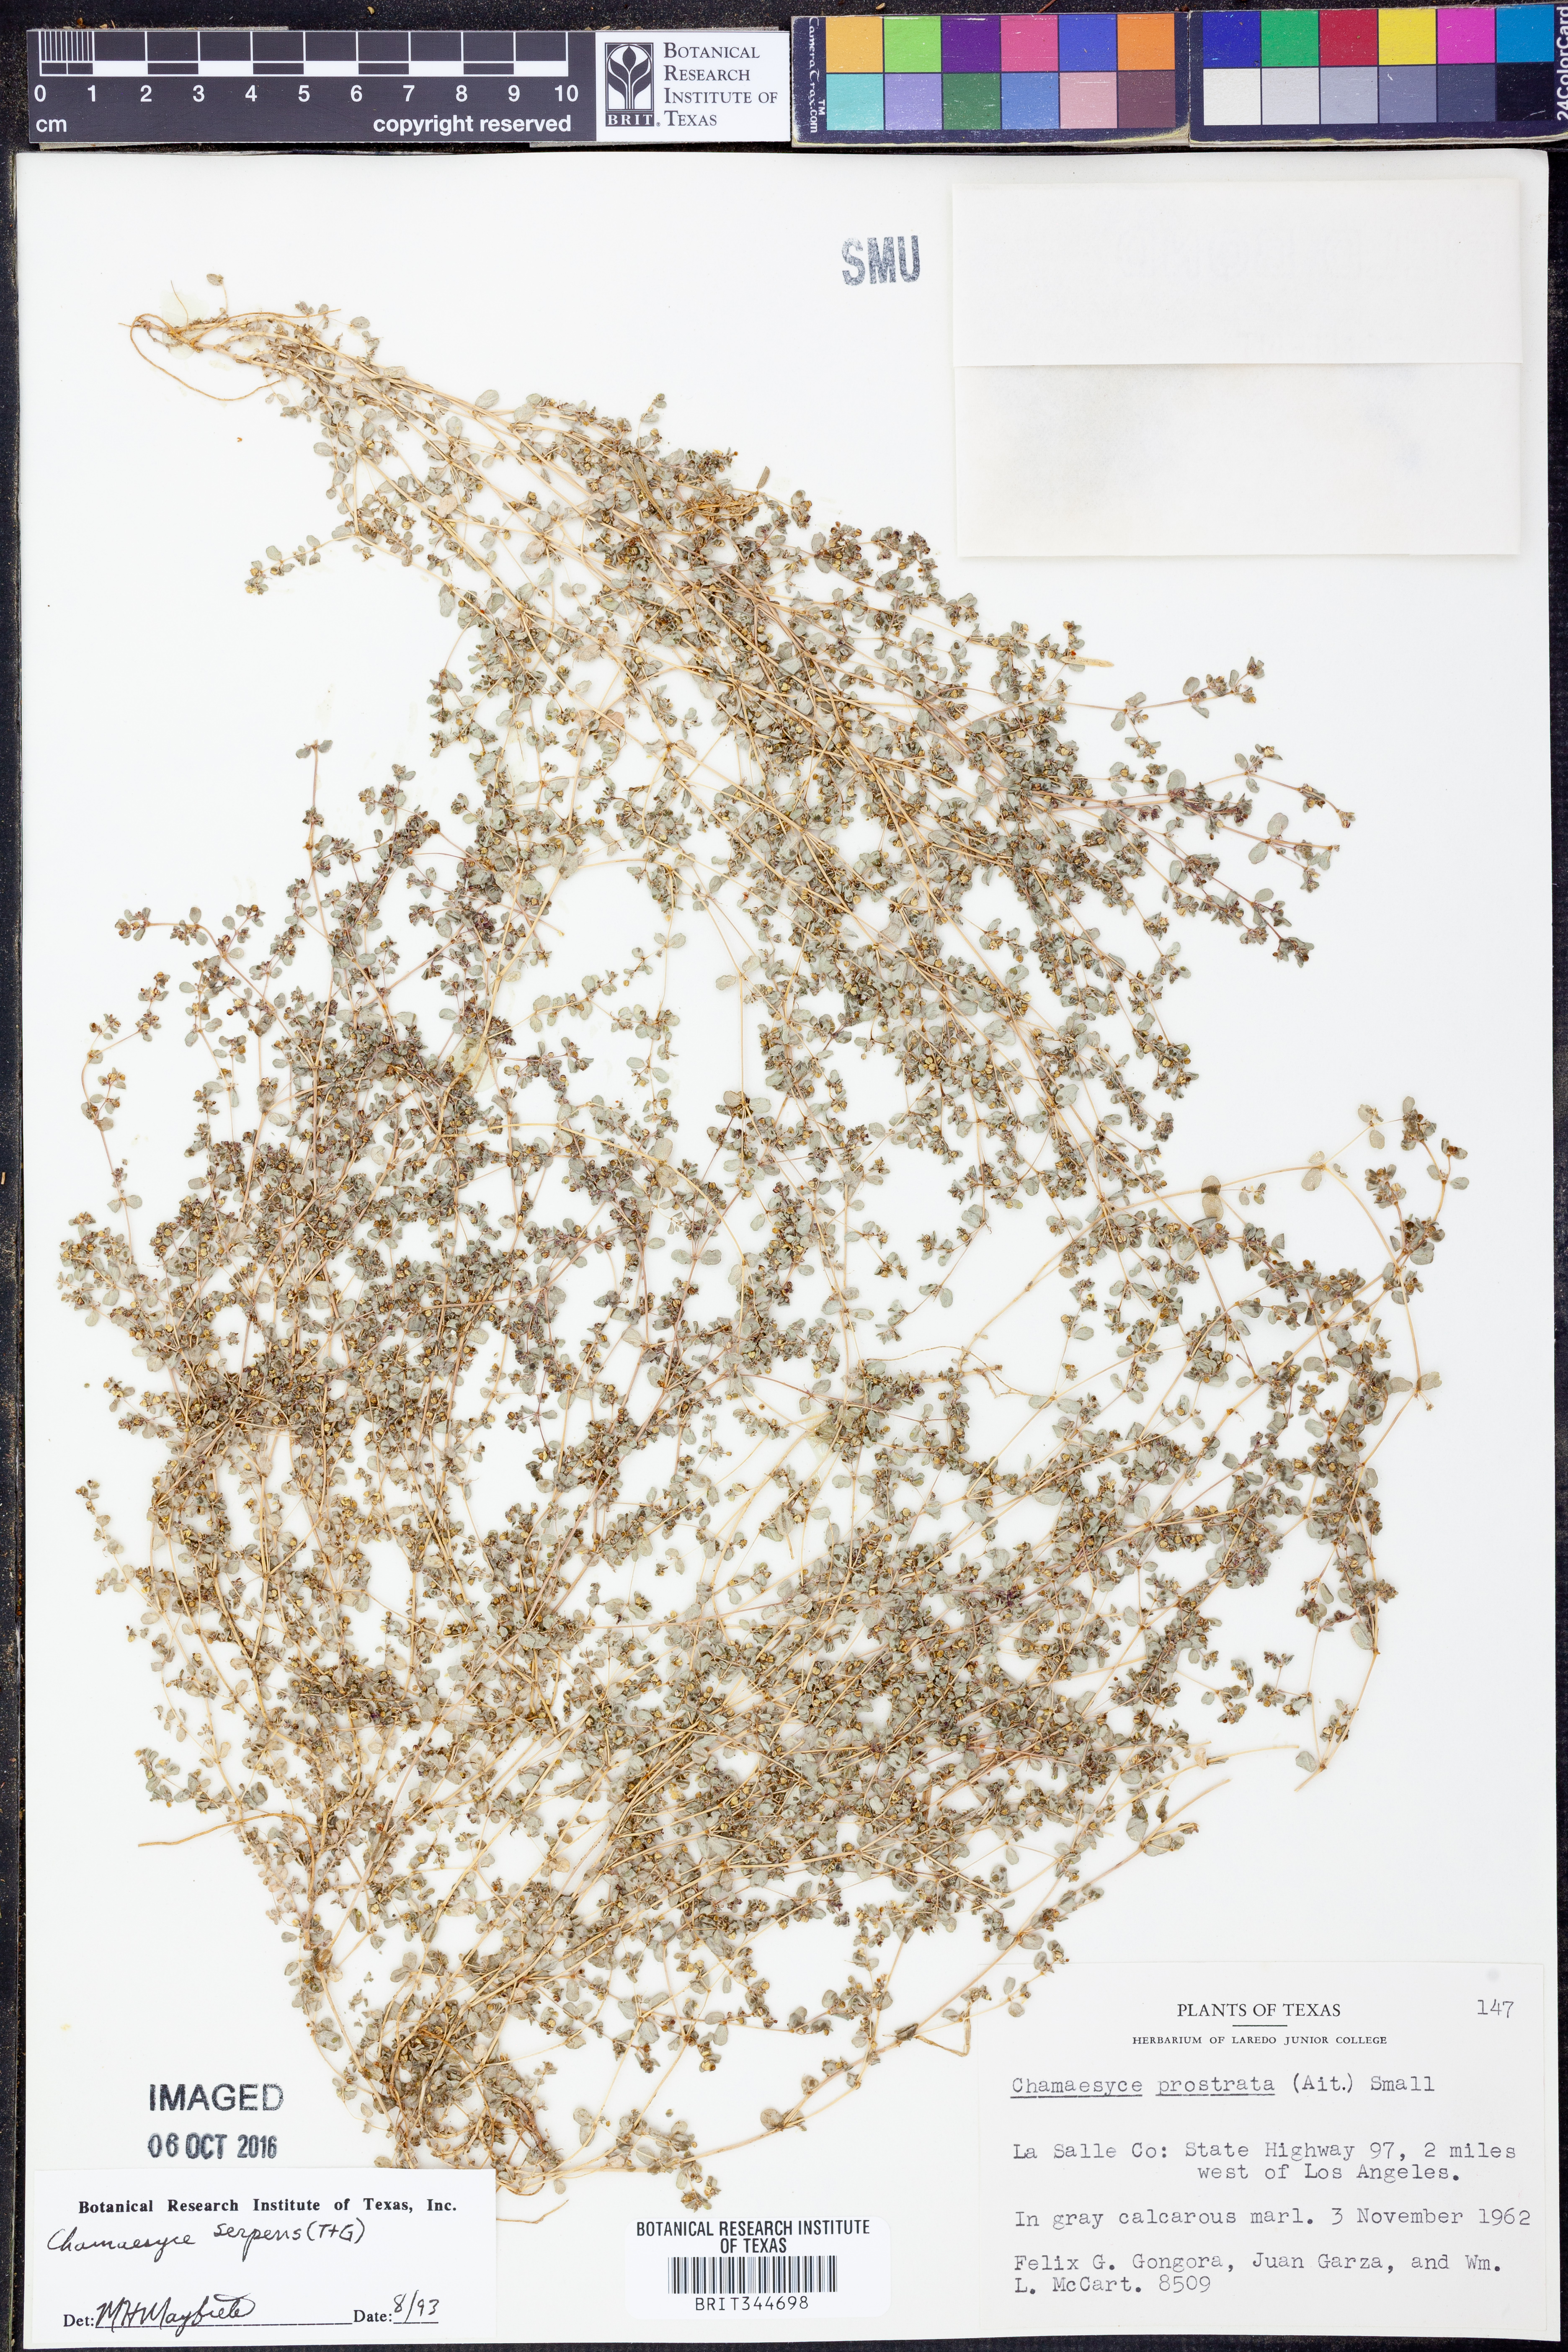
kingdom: Plantae
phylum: Tracheophyta
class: Magnoliopsida
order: Malpighiales
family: Euphorbiaceae
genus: Euphorbia
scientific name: Euphorbia serpens
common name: Matted sandmat
